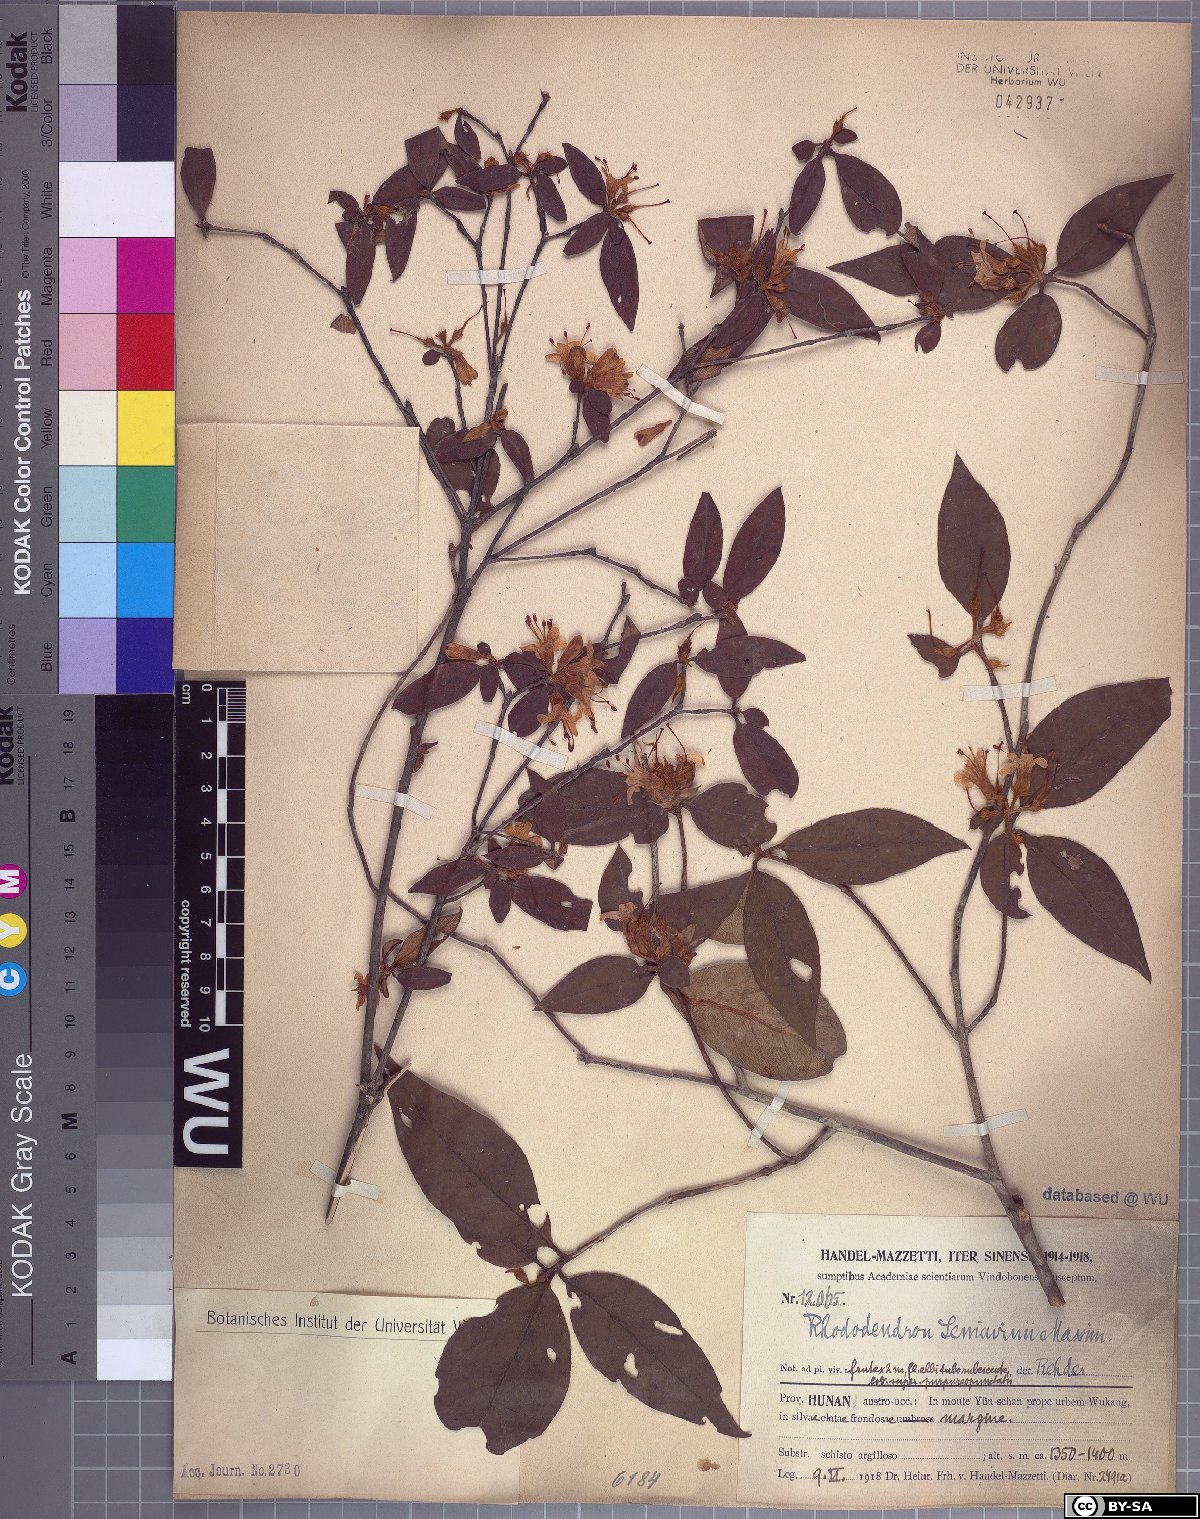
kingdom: Plantae
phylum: Tracheophyta
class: Magnoliopsida
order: Ericales
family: Ericaceae
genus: Rhododendron
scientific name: Rhododendron seniavinii
